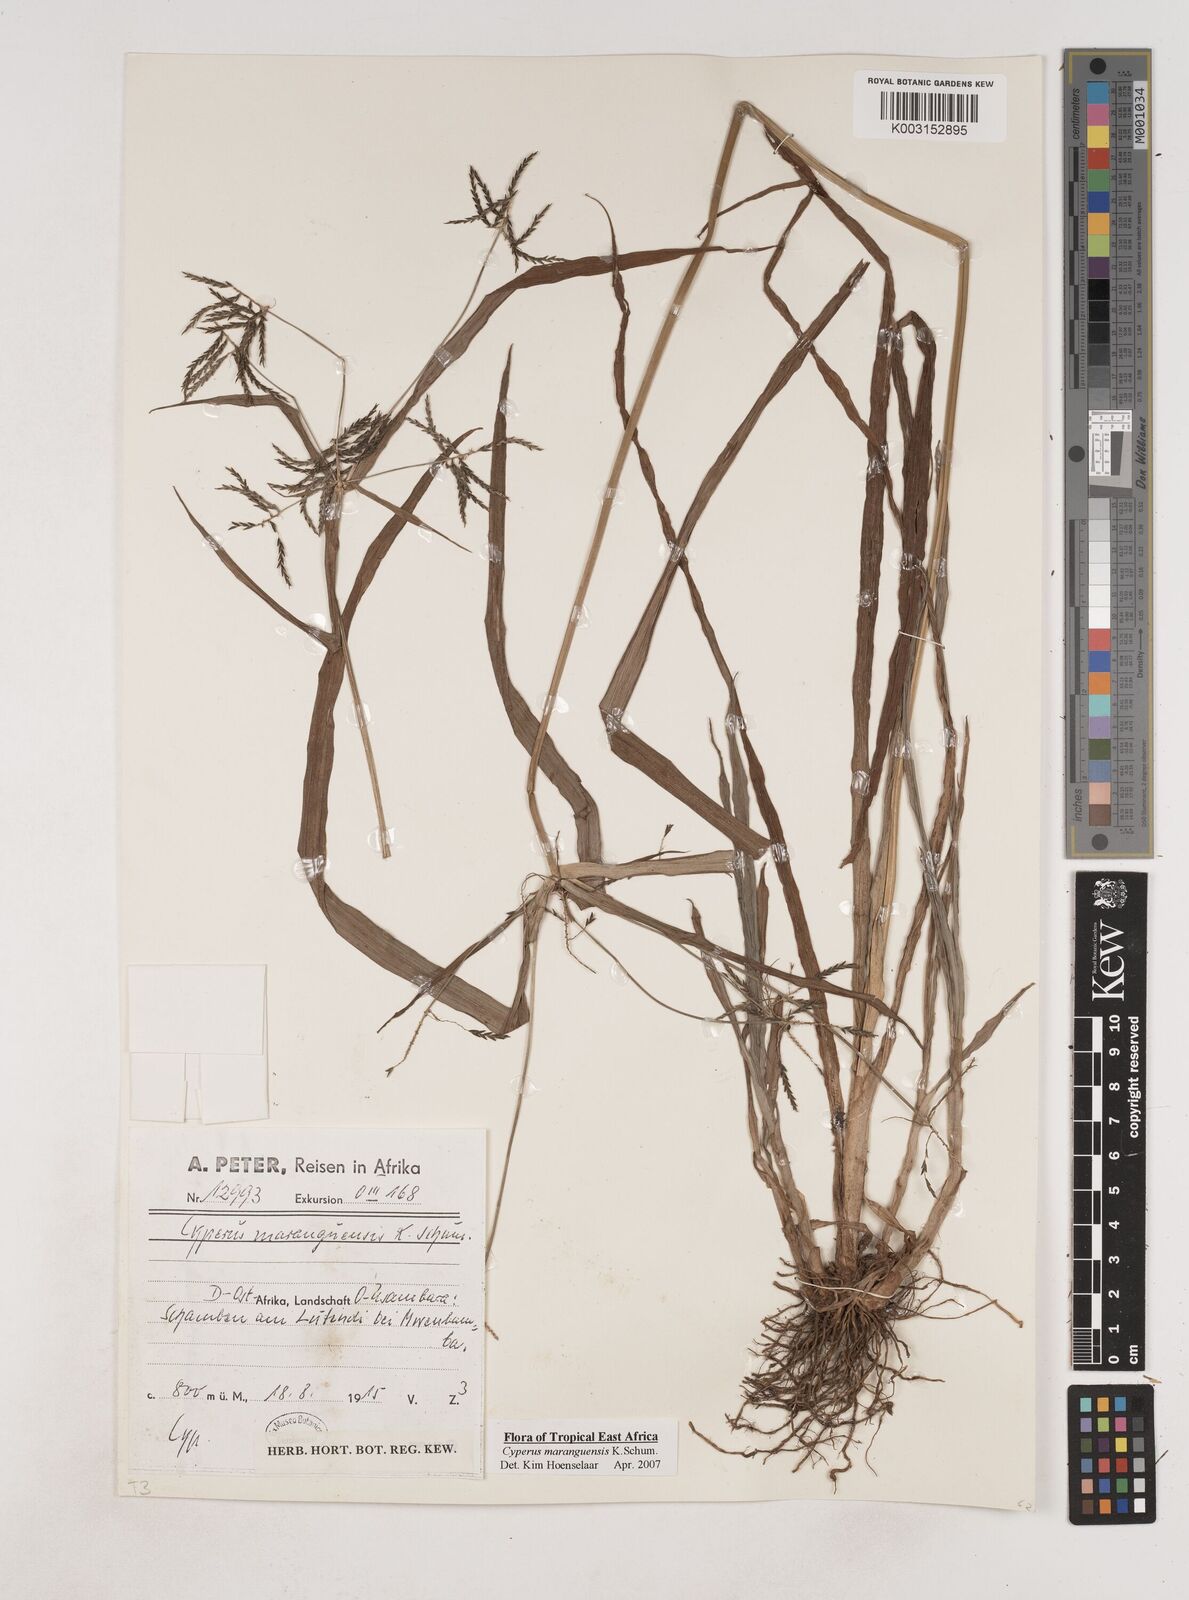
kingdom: Plantae
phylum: Tracheophyta
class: Liliopsida
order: Poales
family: Cyperaceae
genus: Cyperus
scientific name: Cyperus maranguensis
